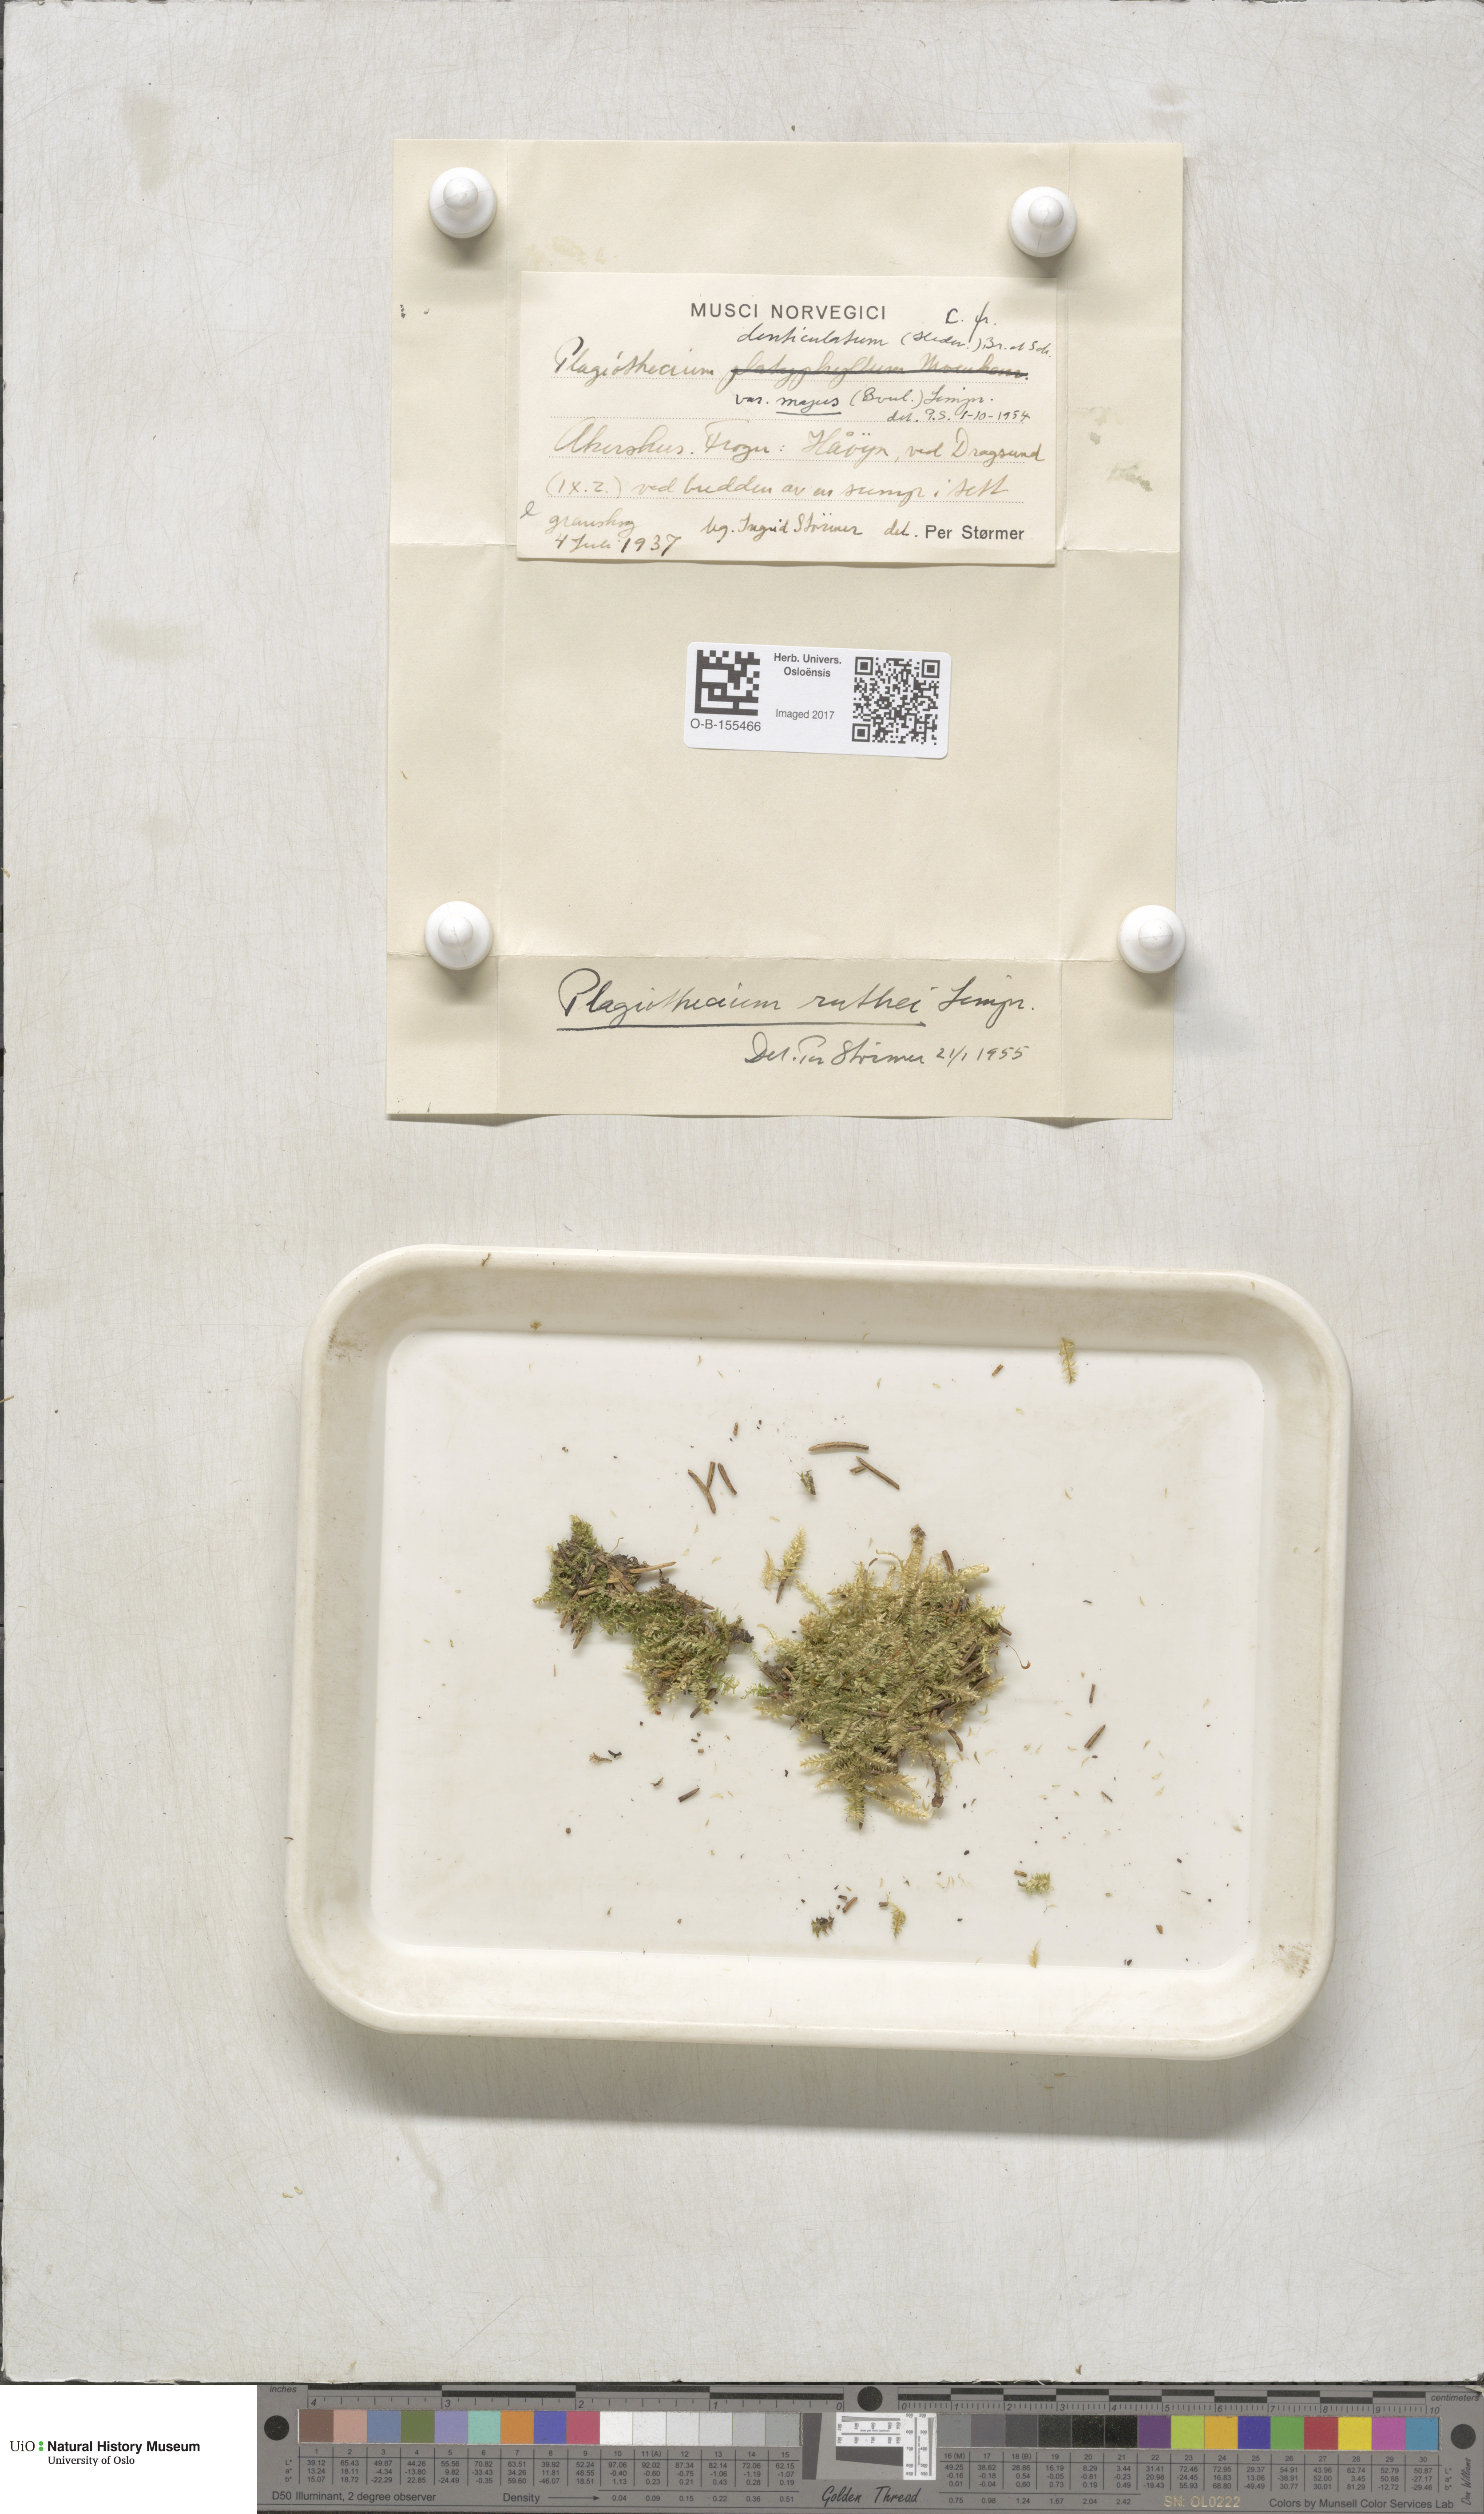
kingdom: Plantae
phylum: Bryophyta
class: Bryopsida
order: Hypnales
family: Plagiotheciaceae
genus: Plagiothecium
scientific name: Plagiothecium denticulatum
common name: Dented silk moss
